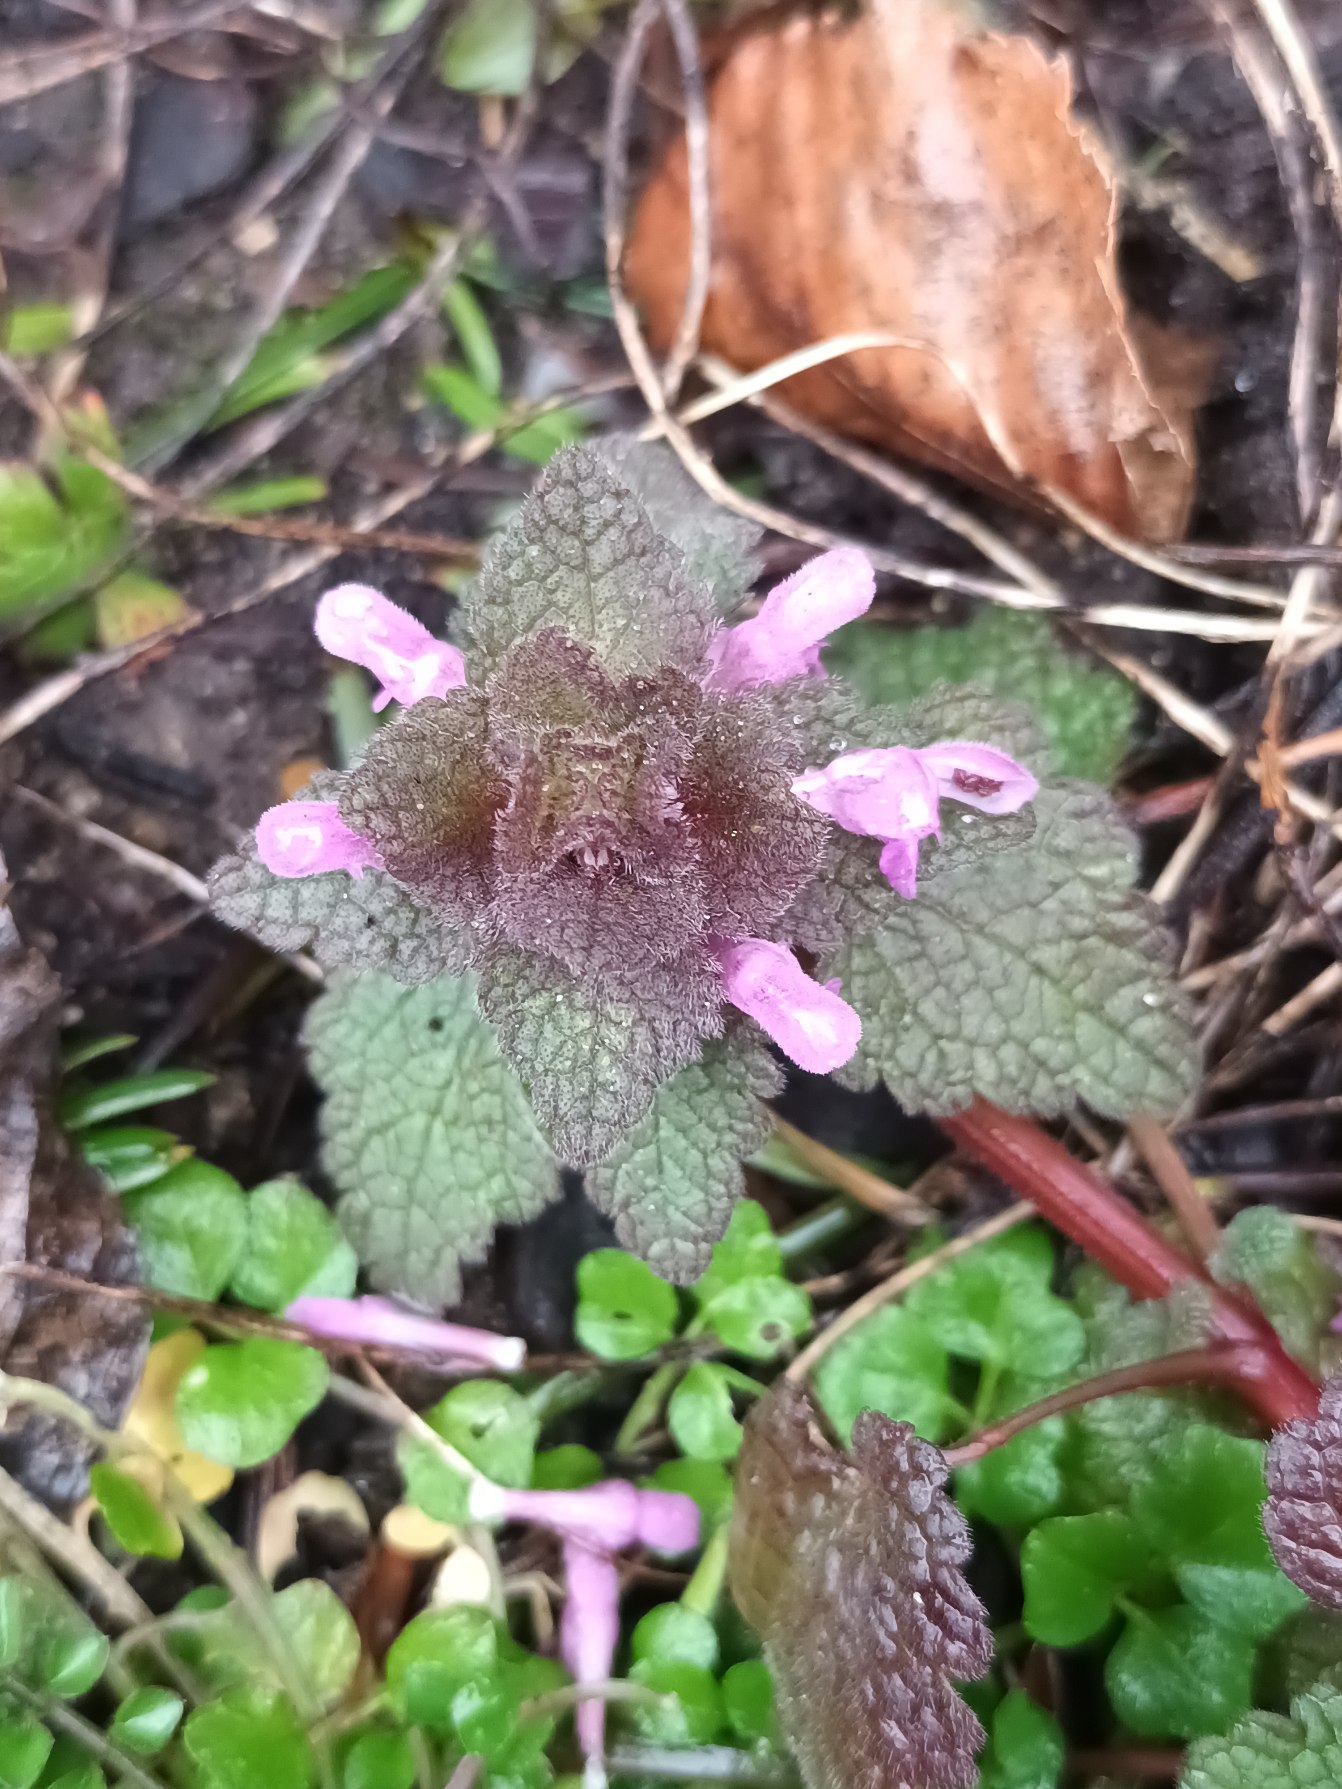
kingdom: Plantae
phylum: Tracheophyta
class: Magnoliopsida
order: Lamiales
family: Lamiaceae
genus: Lamium
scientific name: Lamium purpureum
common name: Rød tvetand
